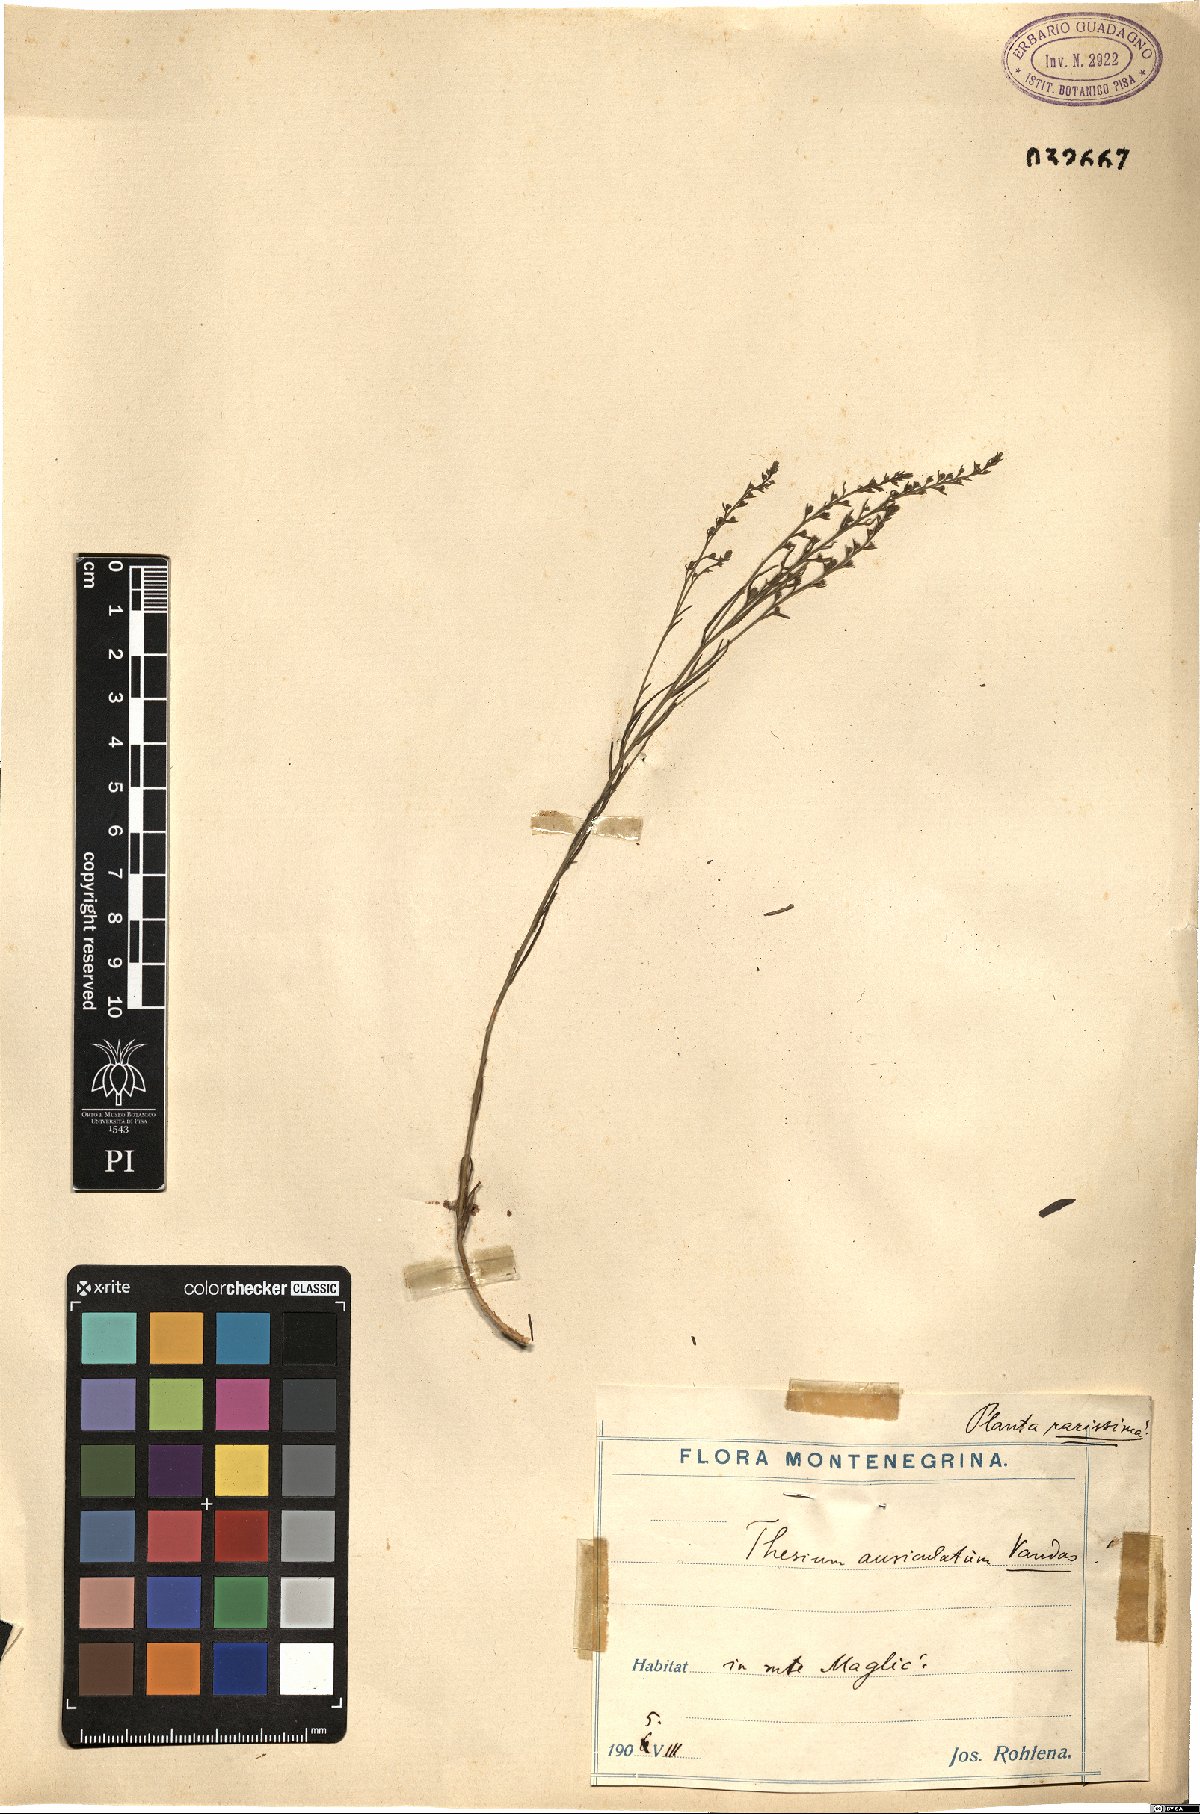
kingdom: Plantae
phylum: Tracheophyta
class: Magnoliopsida
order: Santalales
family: Thesiaceae
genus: Thesium
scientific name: Thesium auriculatum
